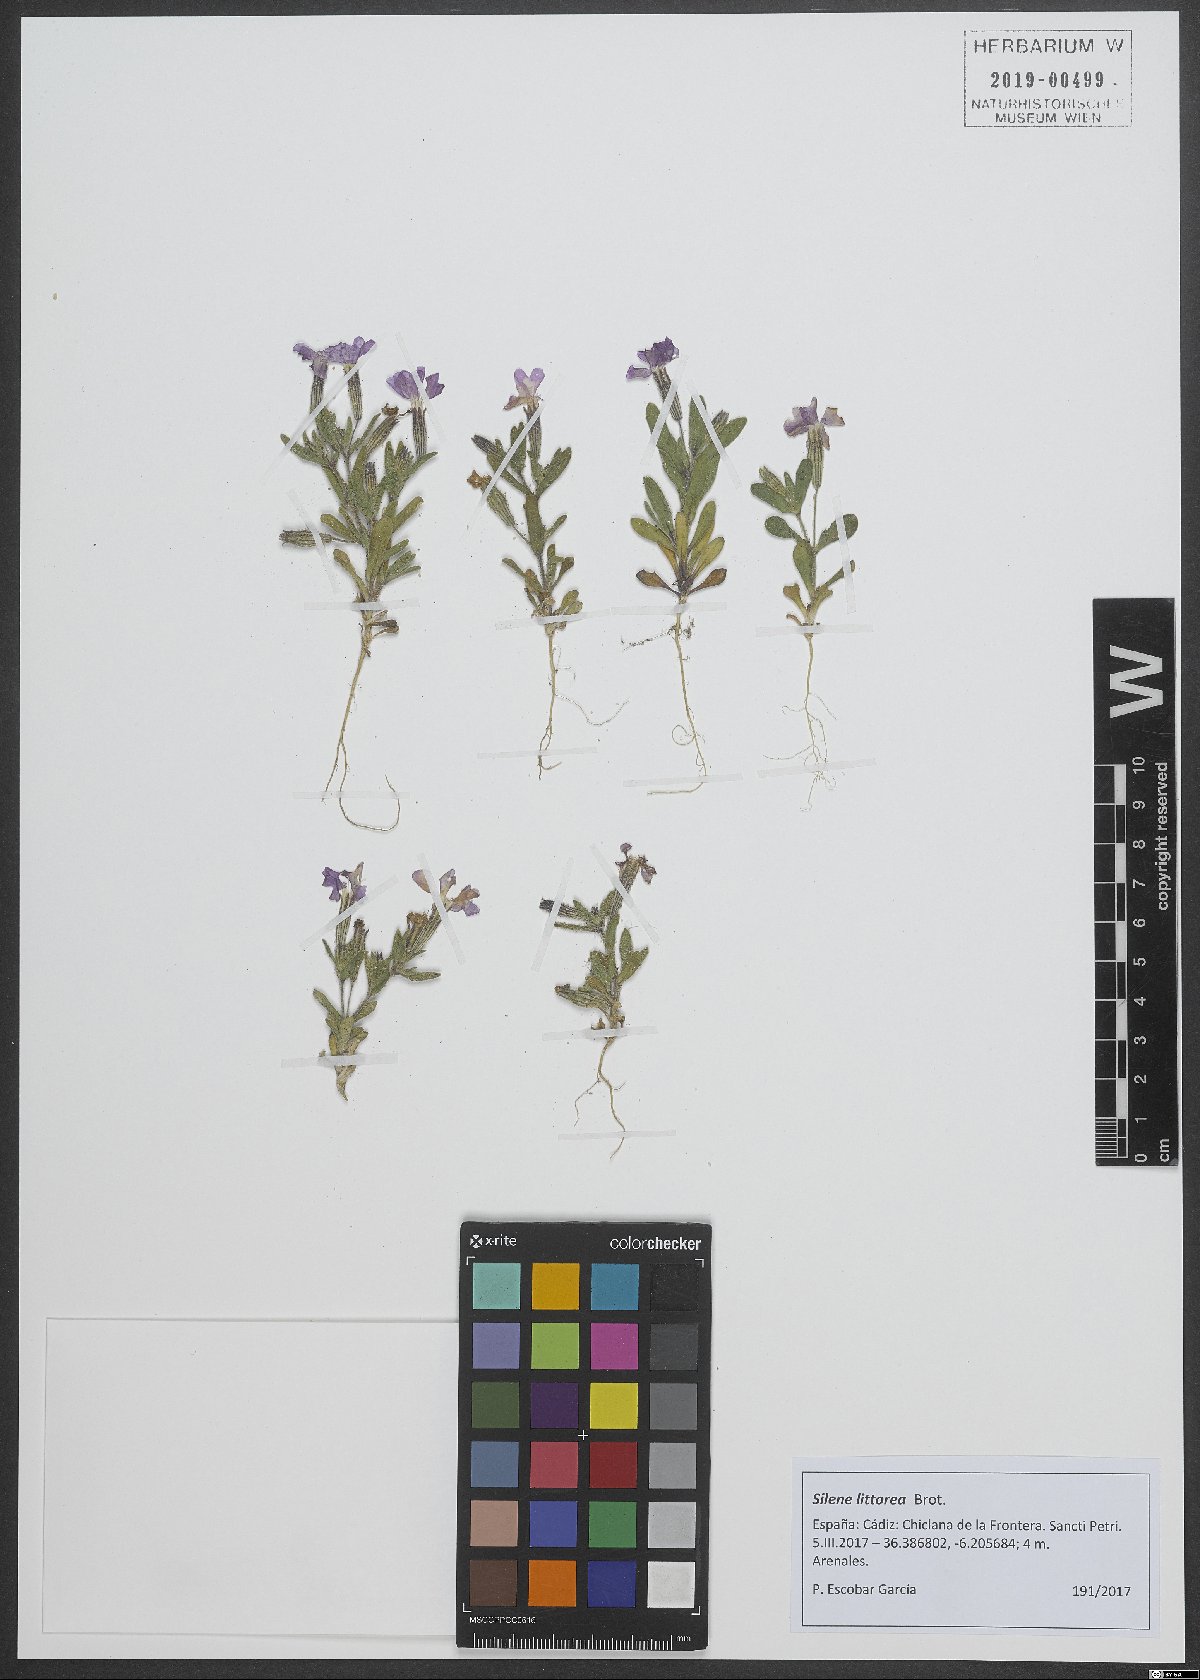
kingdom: Plantae
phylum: Tracheophyta
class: Magnoliopsida
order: Caryophyllales
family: Caryophyllaceae
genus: Silene
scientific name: Silene littorea
